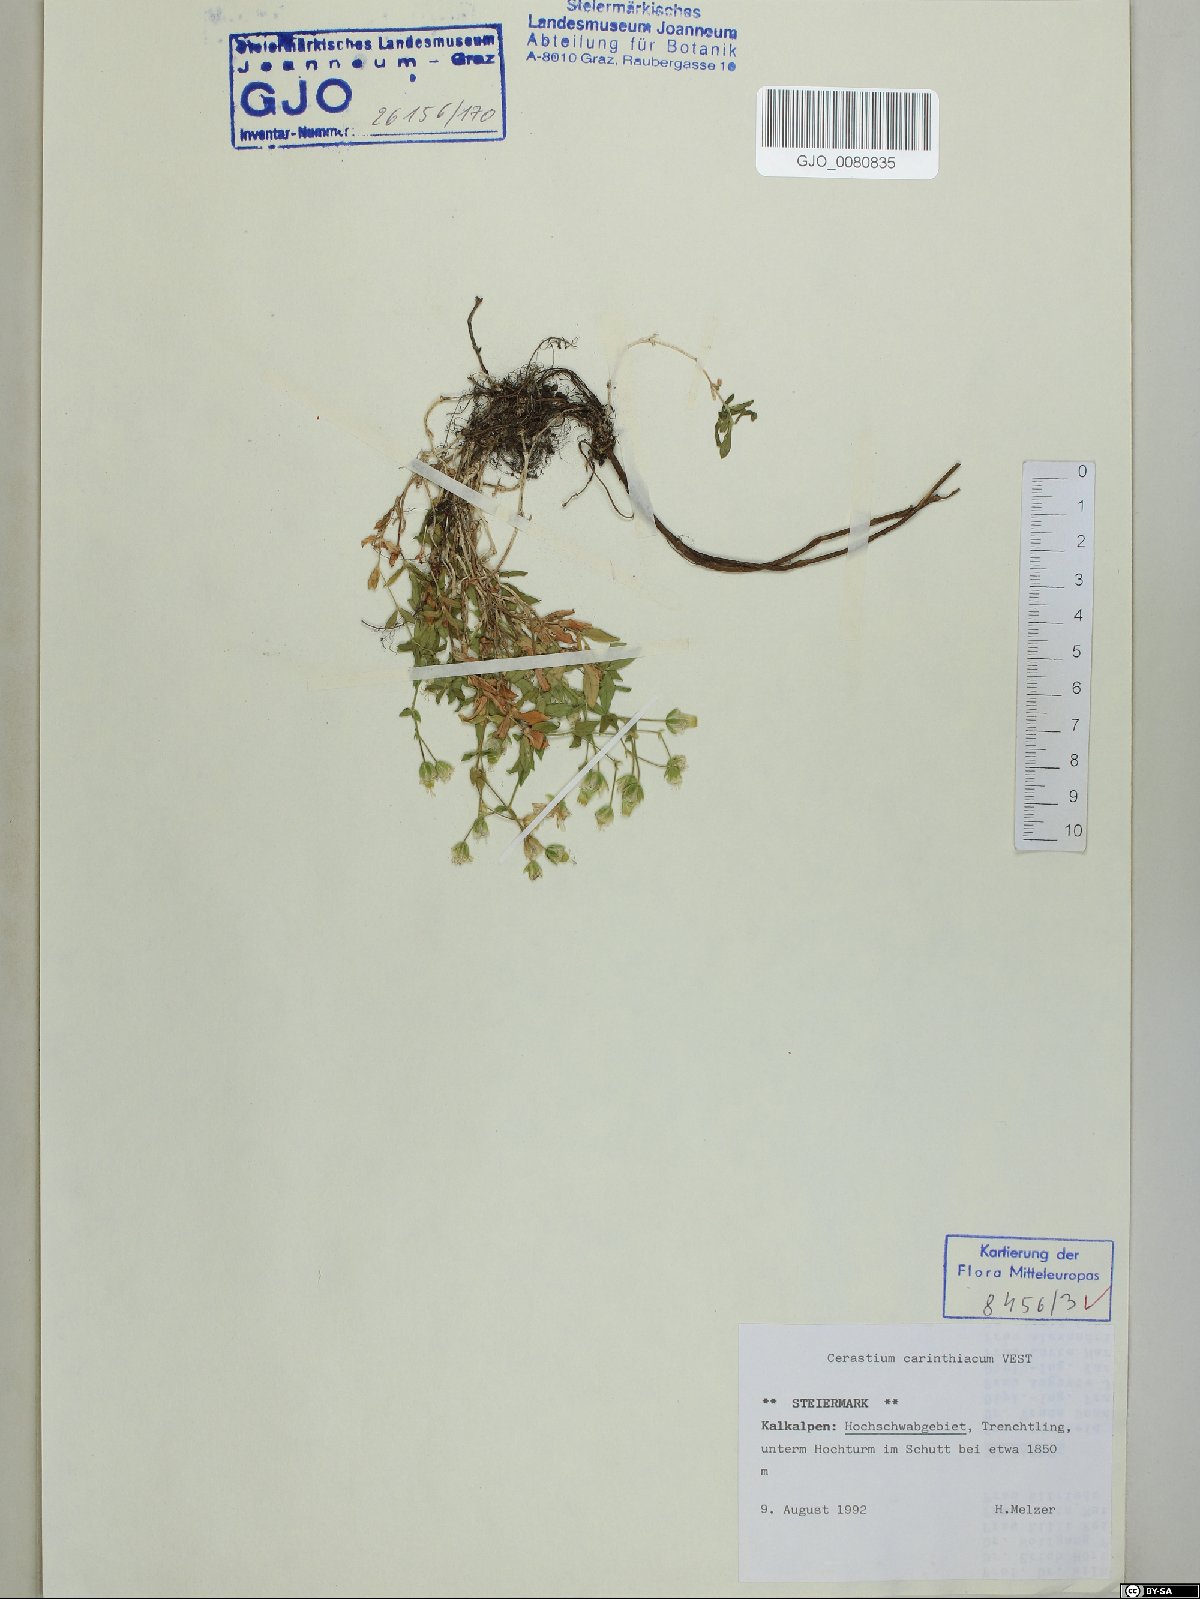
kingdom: Plantae
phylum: Tracheophyta
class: Magnoliopsida
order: Caryophyllales
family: Caryophyllaceae
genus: Cerastium
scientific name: Cerastium carinthiacum
